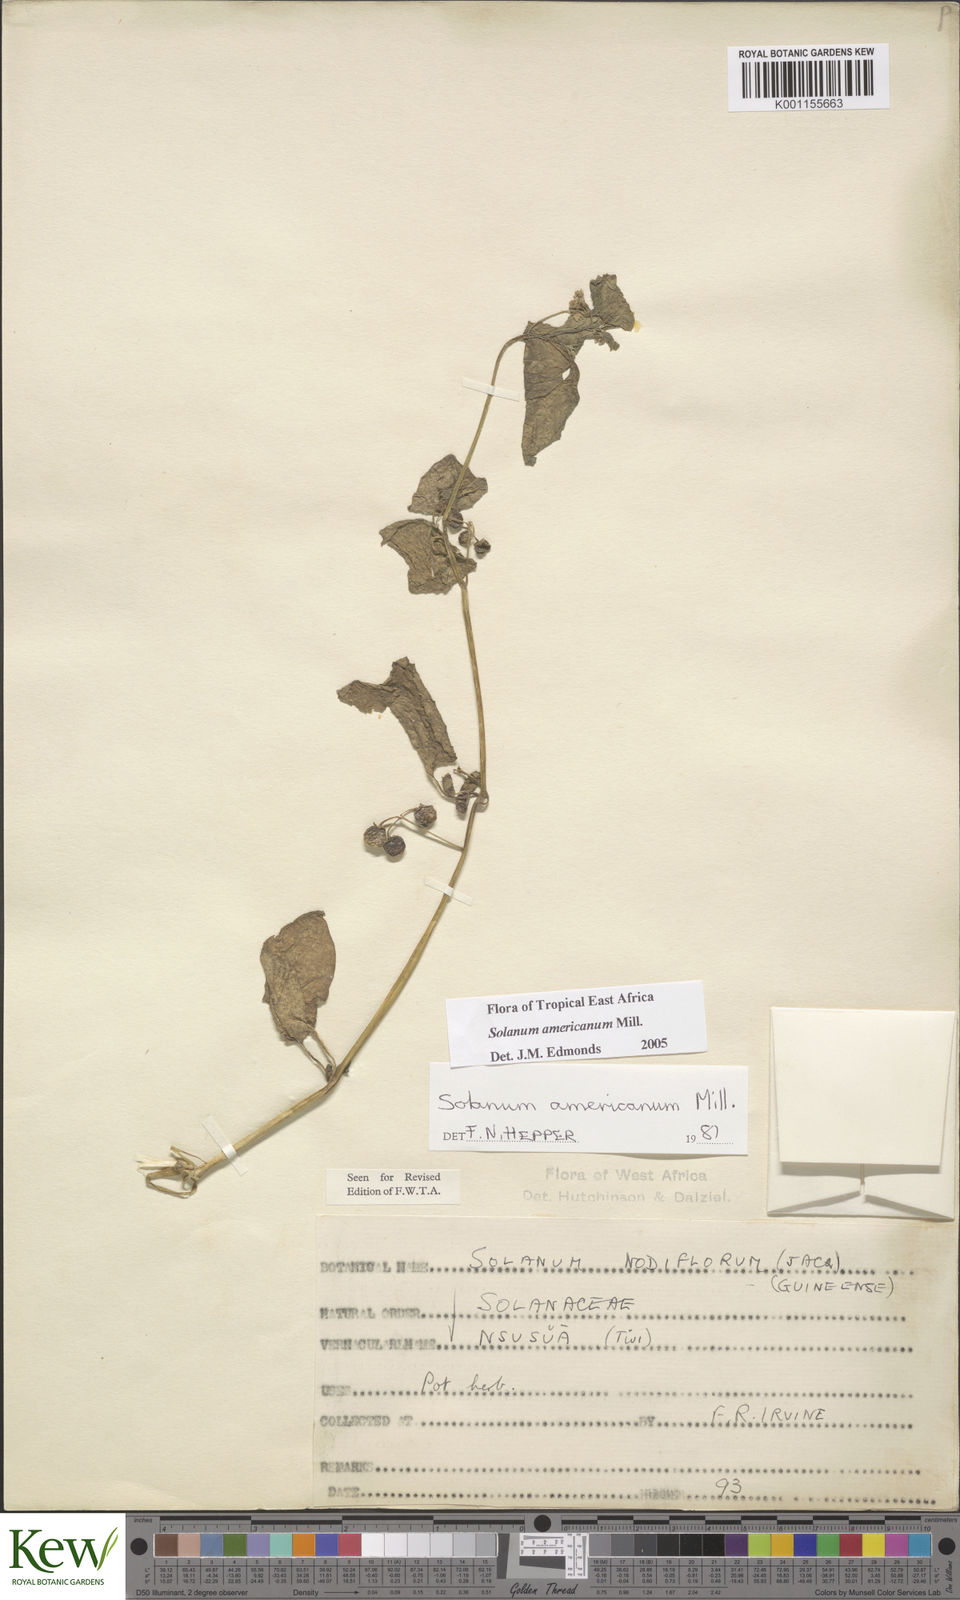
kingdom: Plantae
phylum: Tracheophyta
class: Magnoliopsida
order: Solanales
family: Solanaceae
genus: Solanum
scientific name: Solanum scabrum
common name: Garden-huckleberry
